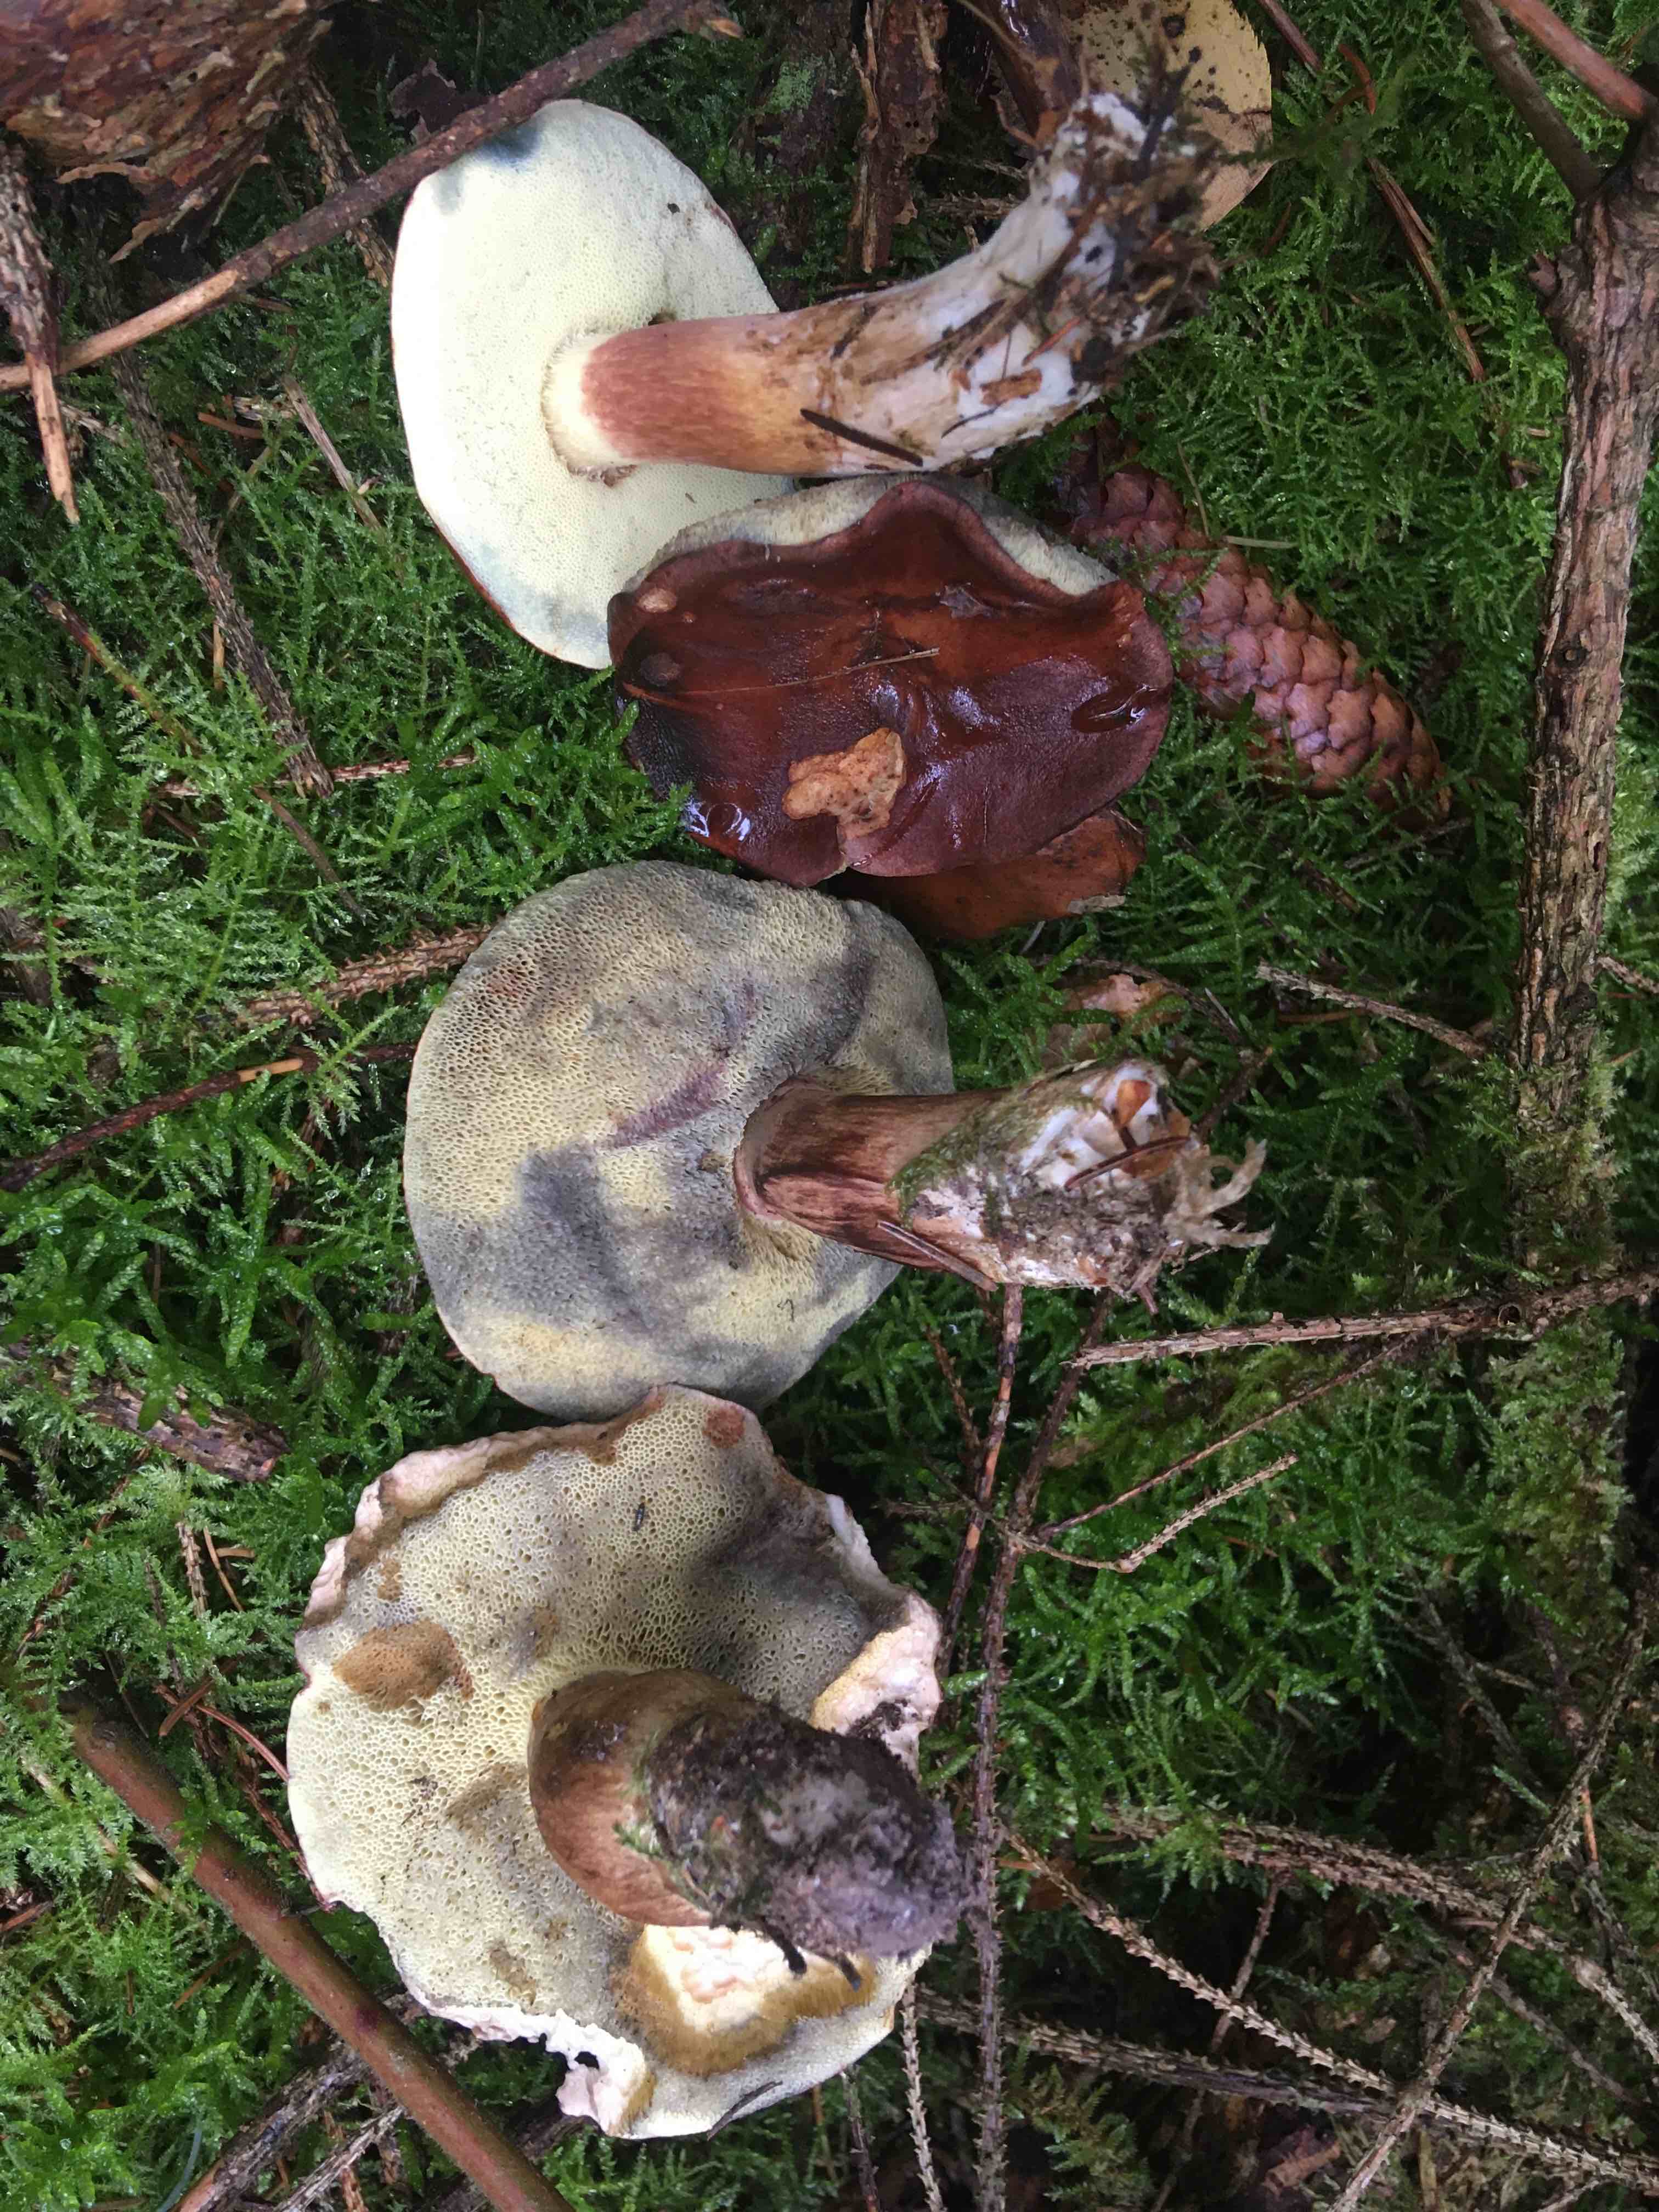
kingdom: Fungi
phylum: Basidiomycota
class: Agaricomycetes
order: Boletales
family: Boletaceae
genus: Imleria
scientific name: Imleria badia
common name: brunstokket rørhat
